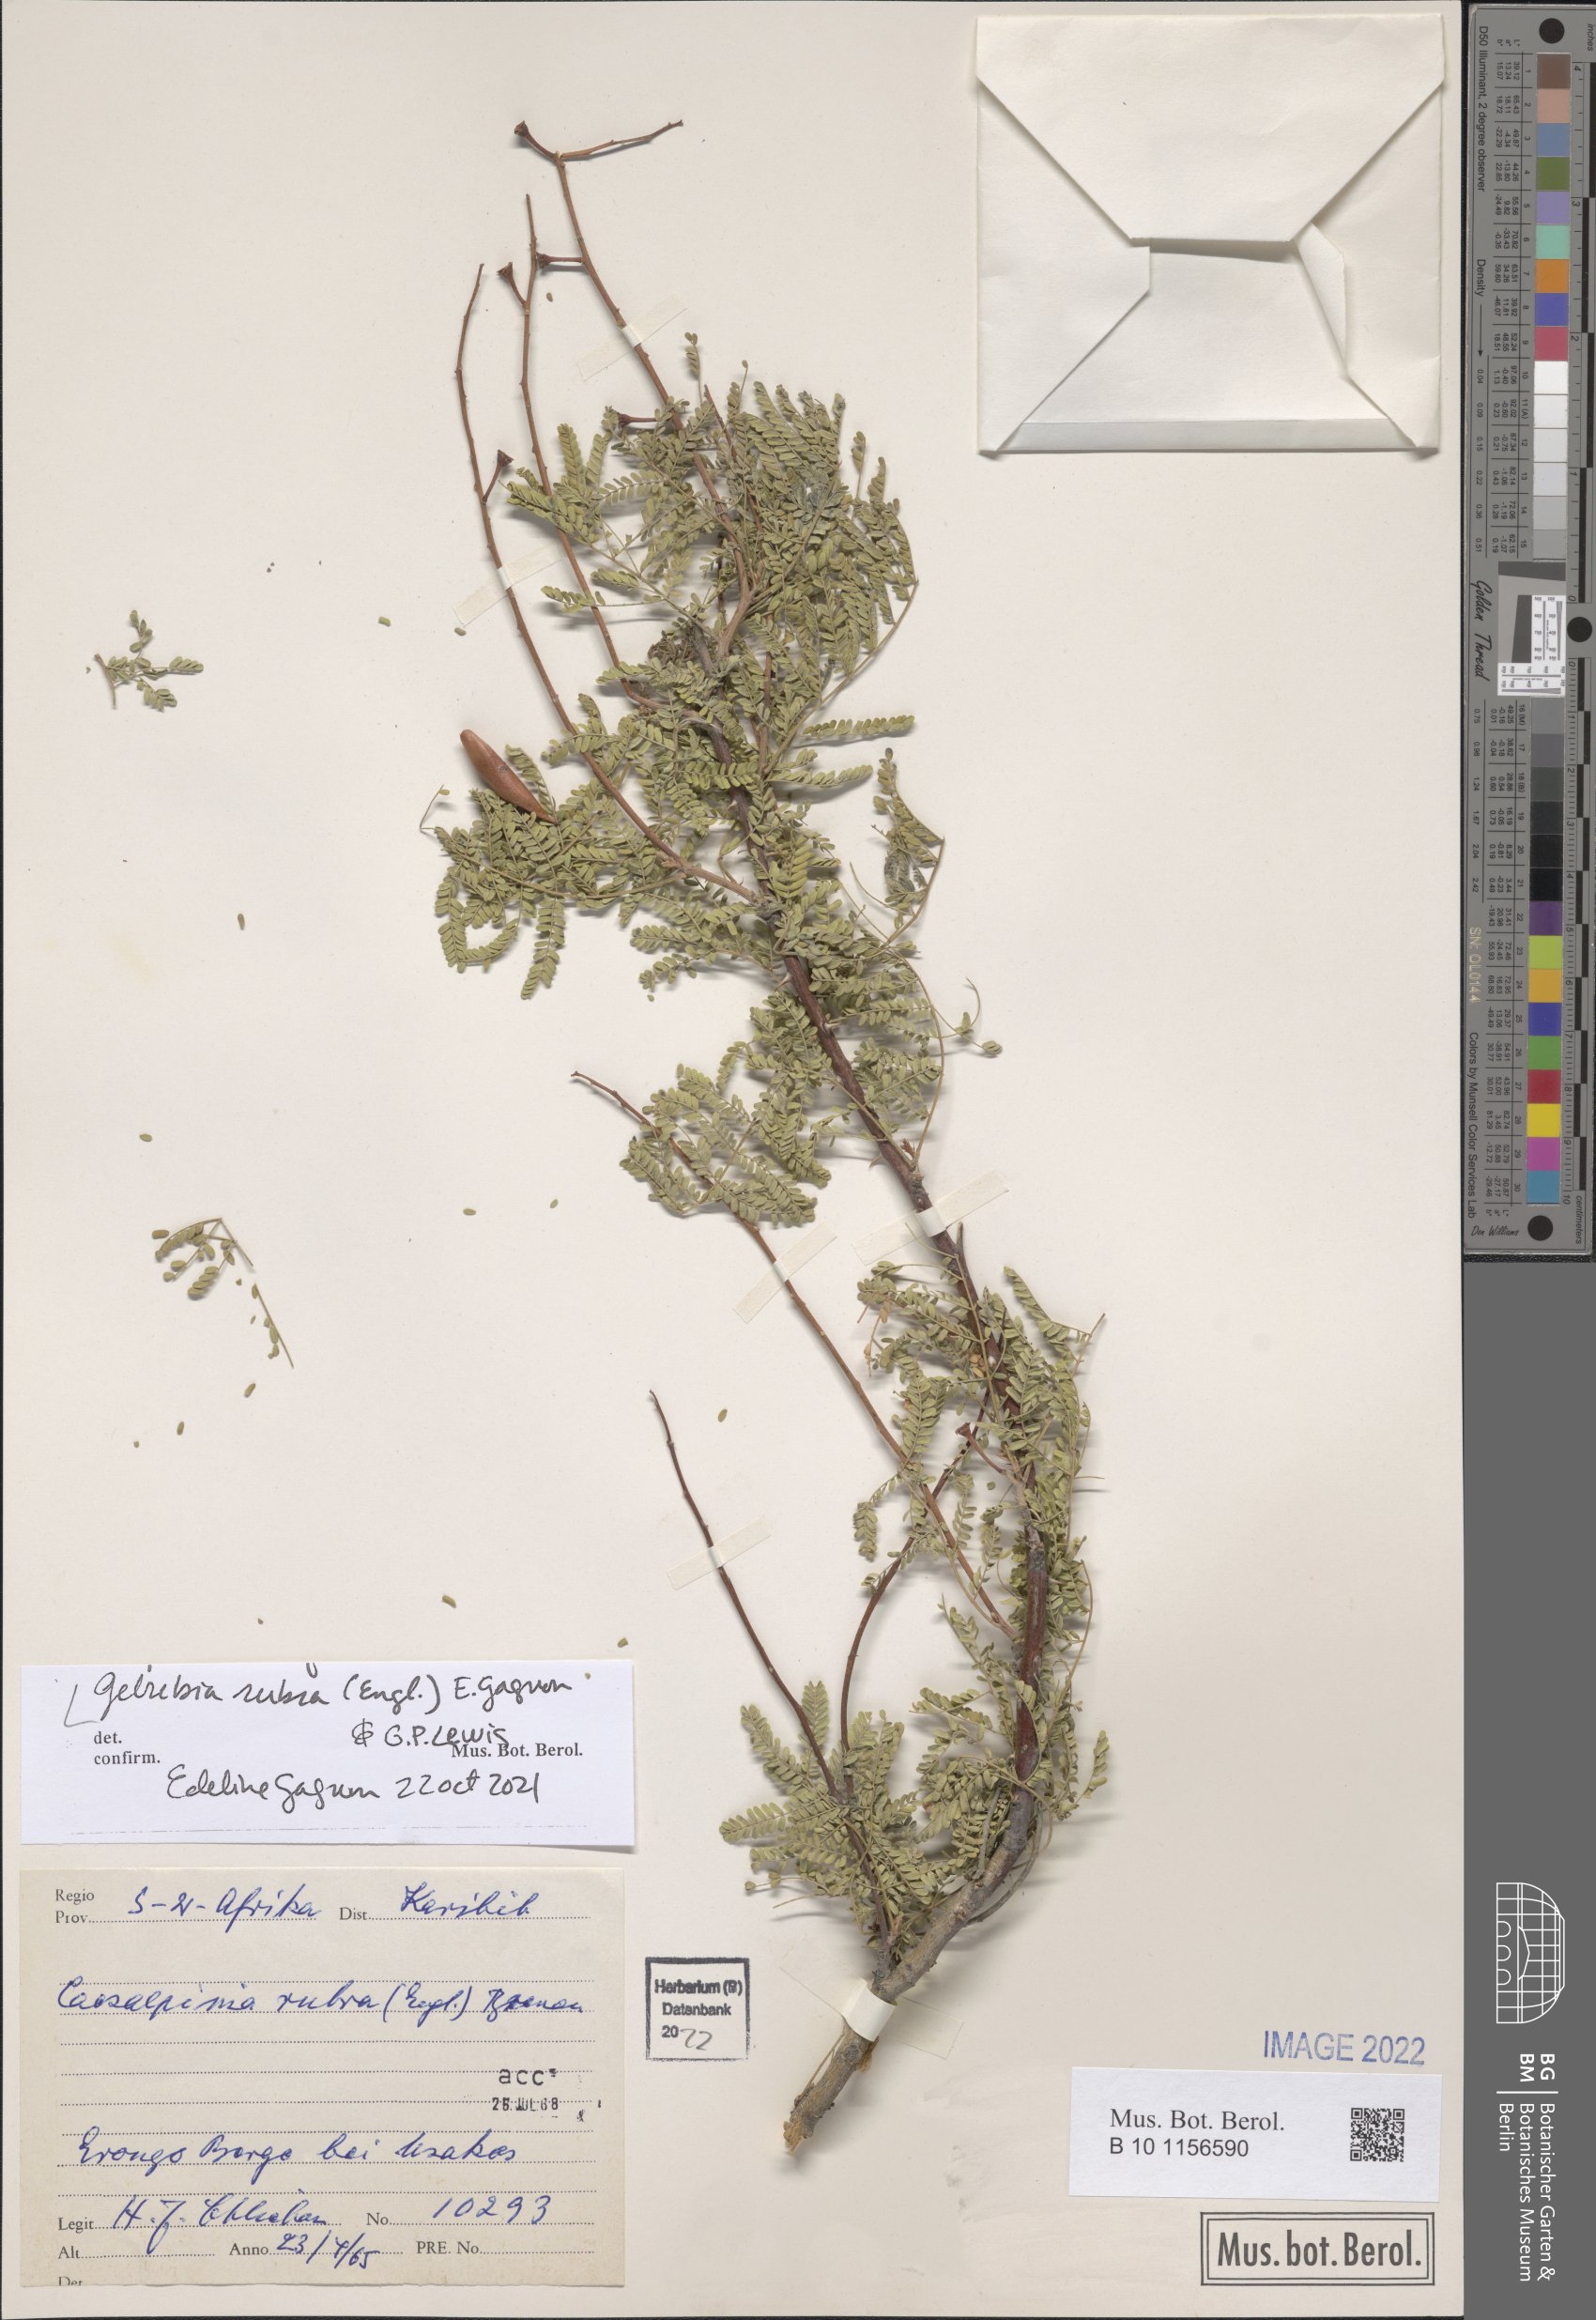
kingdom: Plantae
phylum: Tracheophyta
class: Magnoliopsida
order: Fabales
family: Fabaceae
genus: Gelrebia
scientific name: Gelrebia rubra
